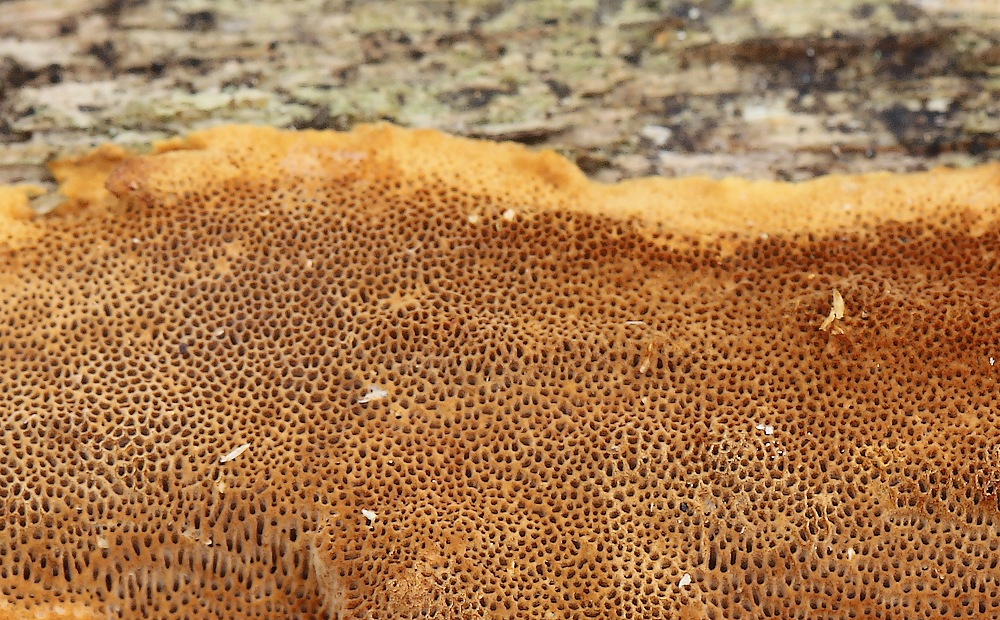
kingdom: Fungi
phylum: Basidiomycota
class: Agaricomycetes
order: Hymenochaetales
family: Hymenochaetaceae
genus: Fuscoporia
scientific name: Fuscoporia ferrea
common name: skorpe-ildporesvamp
